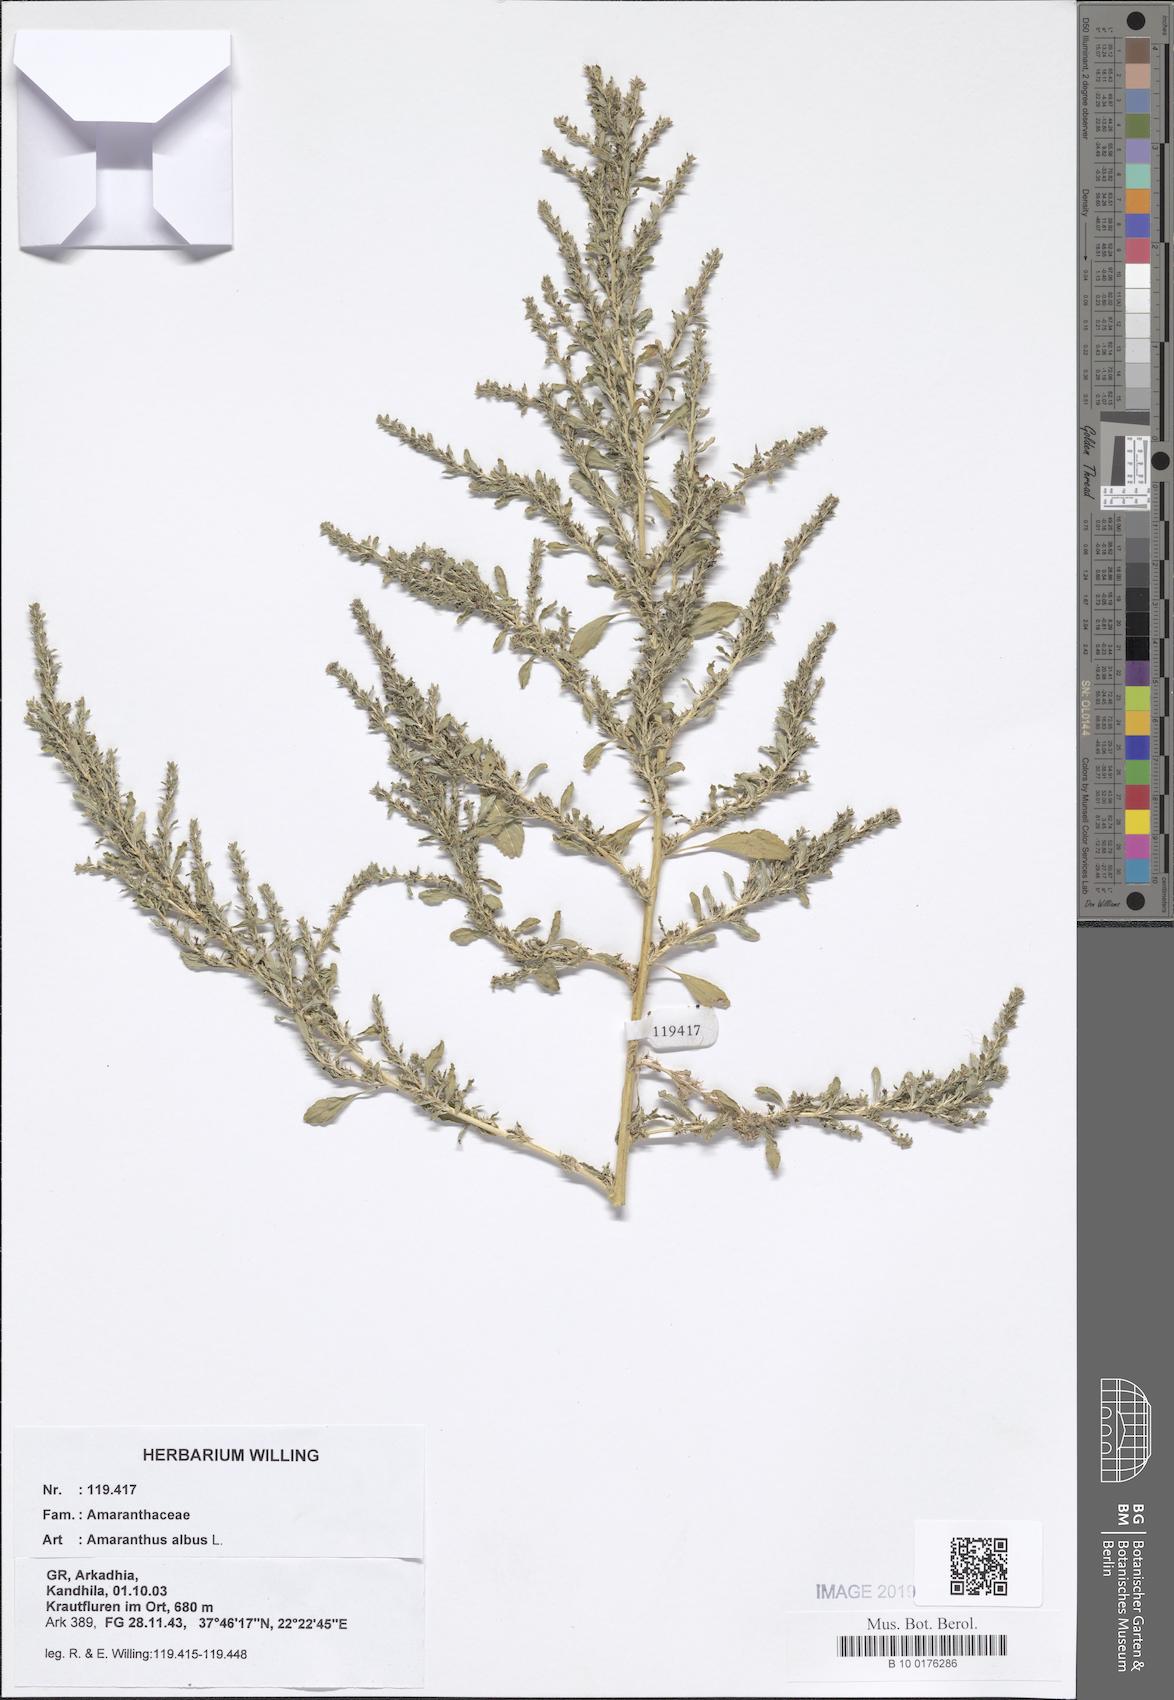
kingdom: Plantae
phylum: Tracheophyta
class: Magnoliopsida
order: Caryophyllales
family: Amaranthaceae
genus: Amaranthus
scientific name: Amaranthus albus
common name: White pigweed
